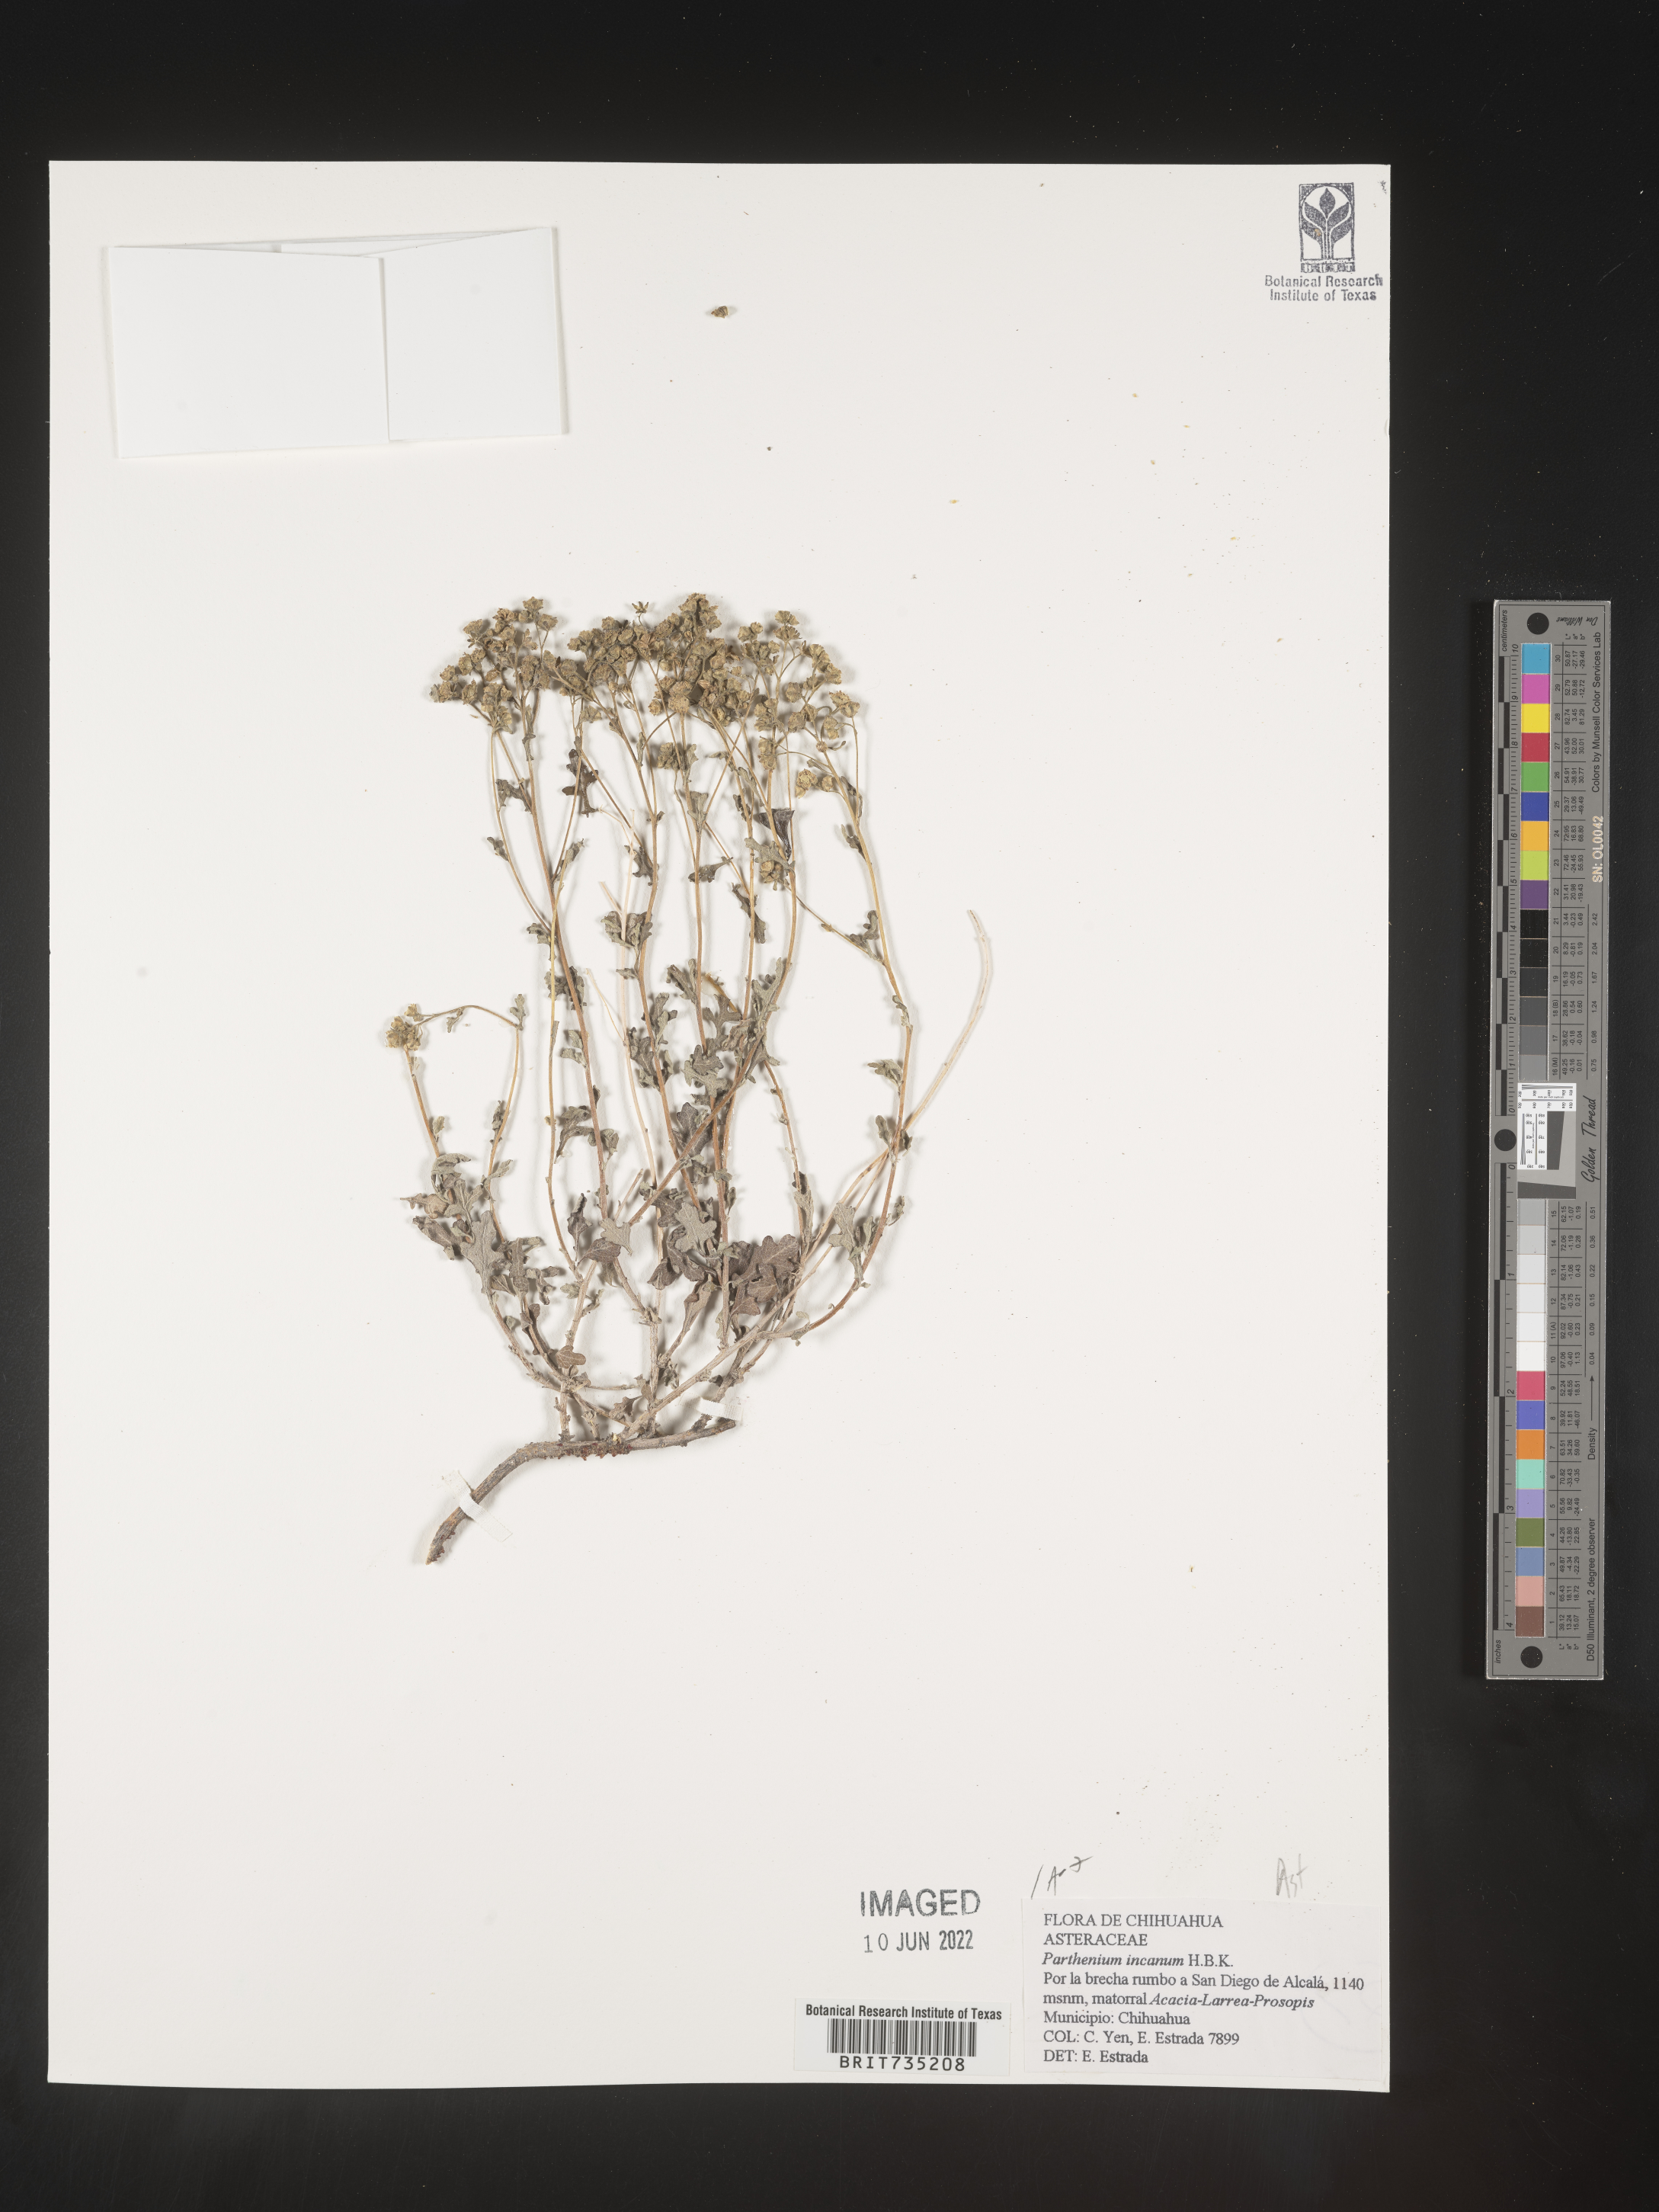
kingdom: Plantae
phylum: Tracheophyta
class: Magnoliopsida
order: Asterales
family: Asteraceae
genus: Parthenium
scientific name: Parthenium
